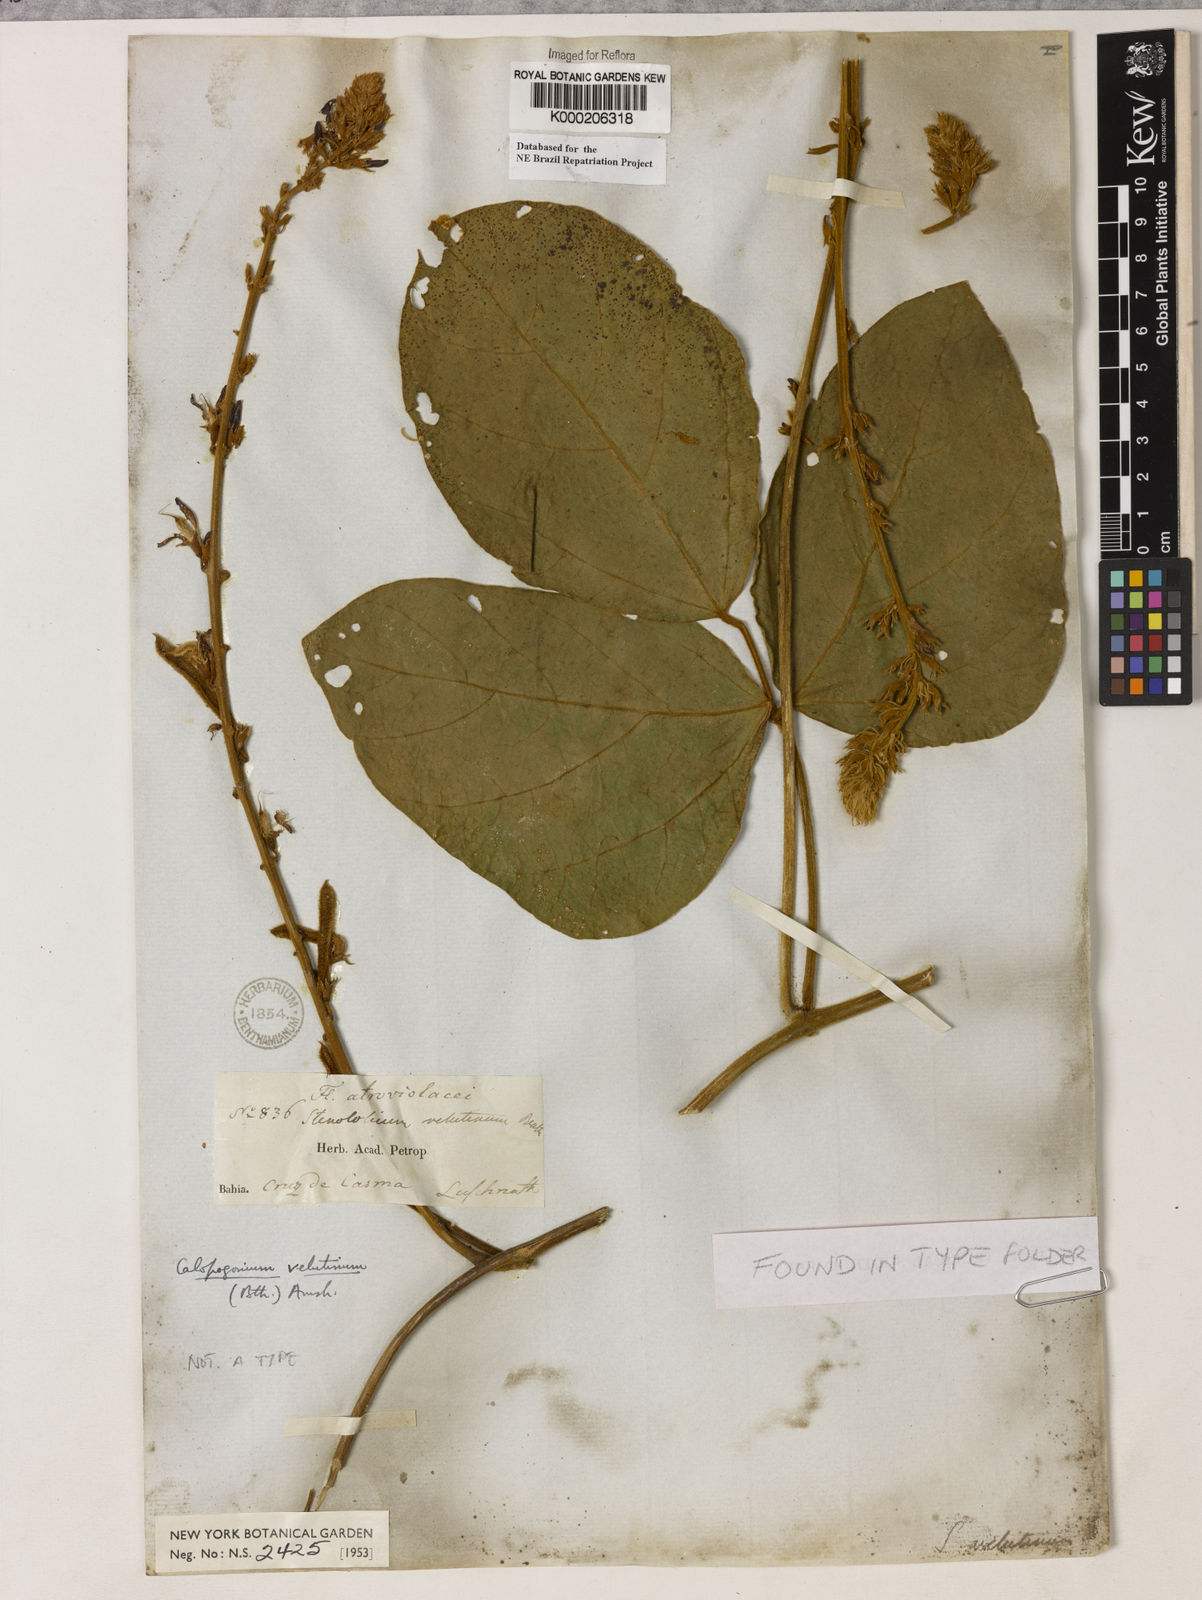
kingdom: Plantae
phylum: Tracheophyta
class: Magnoliopsida
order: Fabales
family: Fabaceae
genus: Calopogonium
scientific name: Calopogonium velutinum
